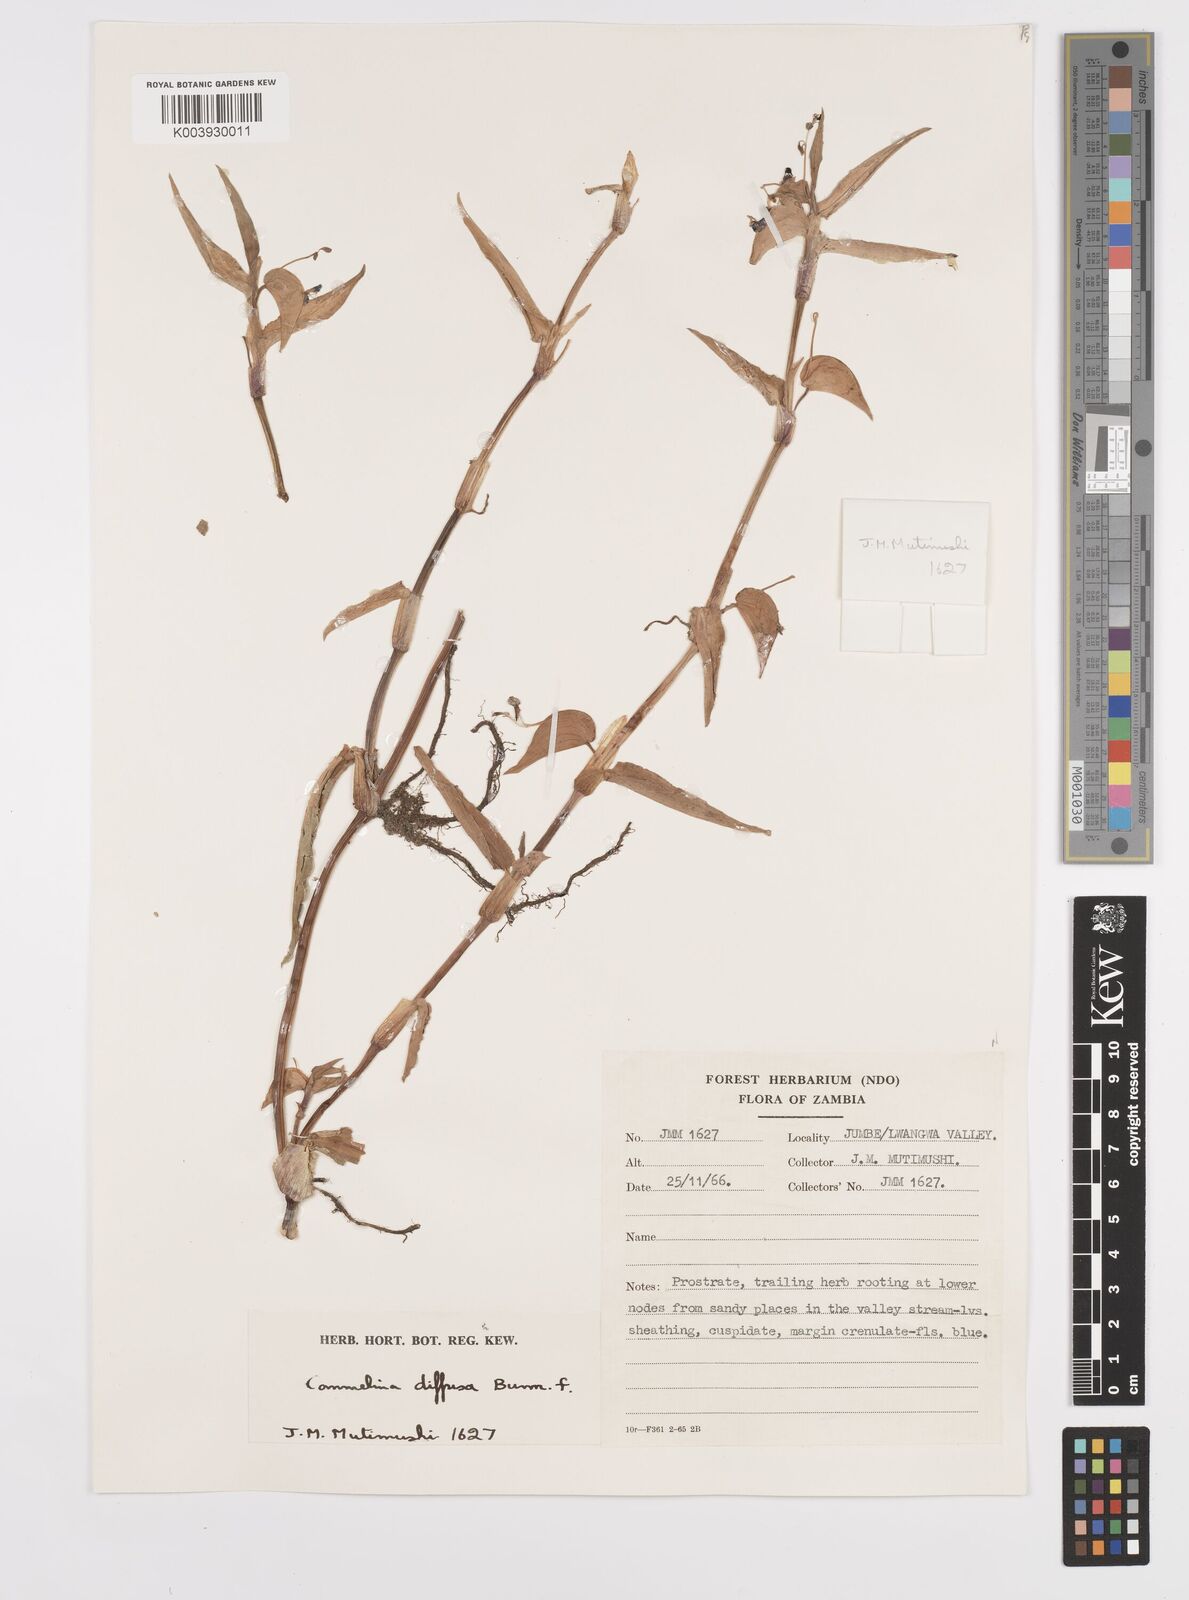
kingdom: Plantae
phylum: Tracheophyta
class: Liliopsida
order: Commelinales
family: Commelinaceae
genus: Commelina
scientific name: Commelina diffusa
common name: Climbing dayflower
